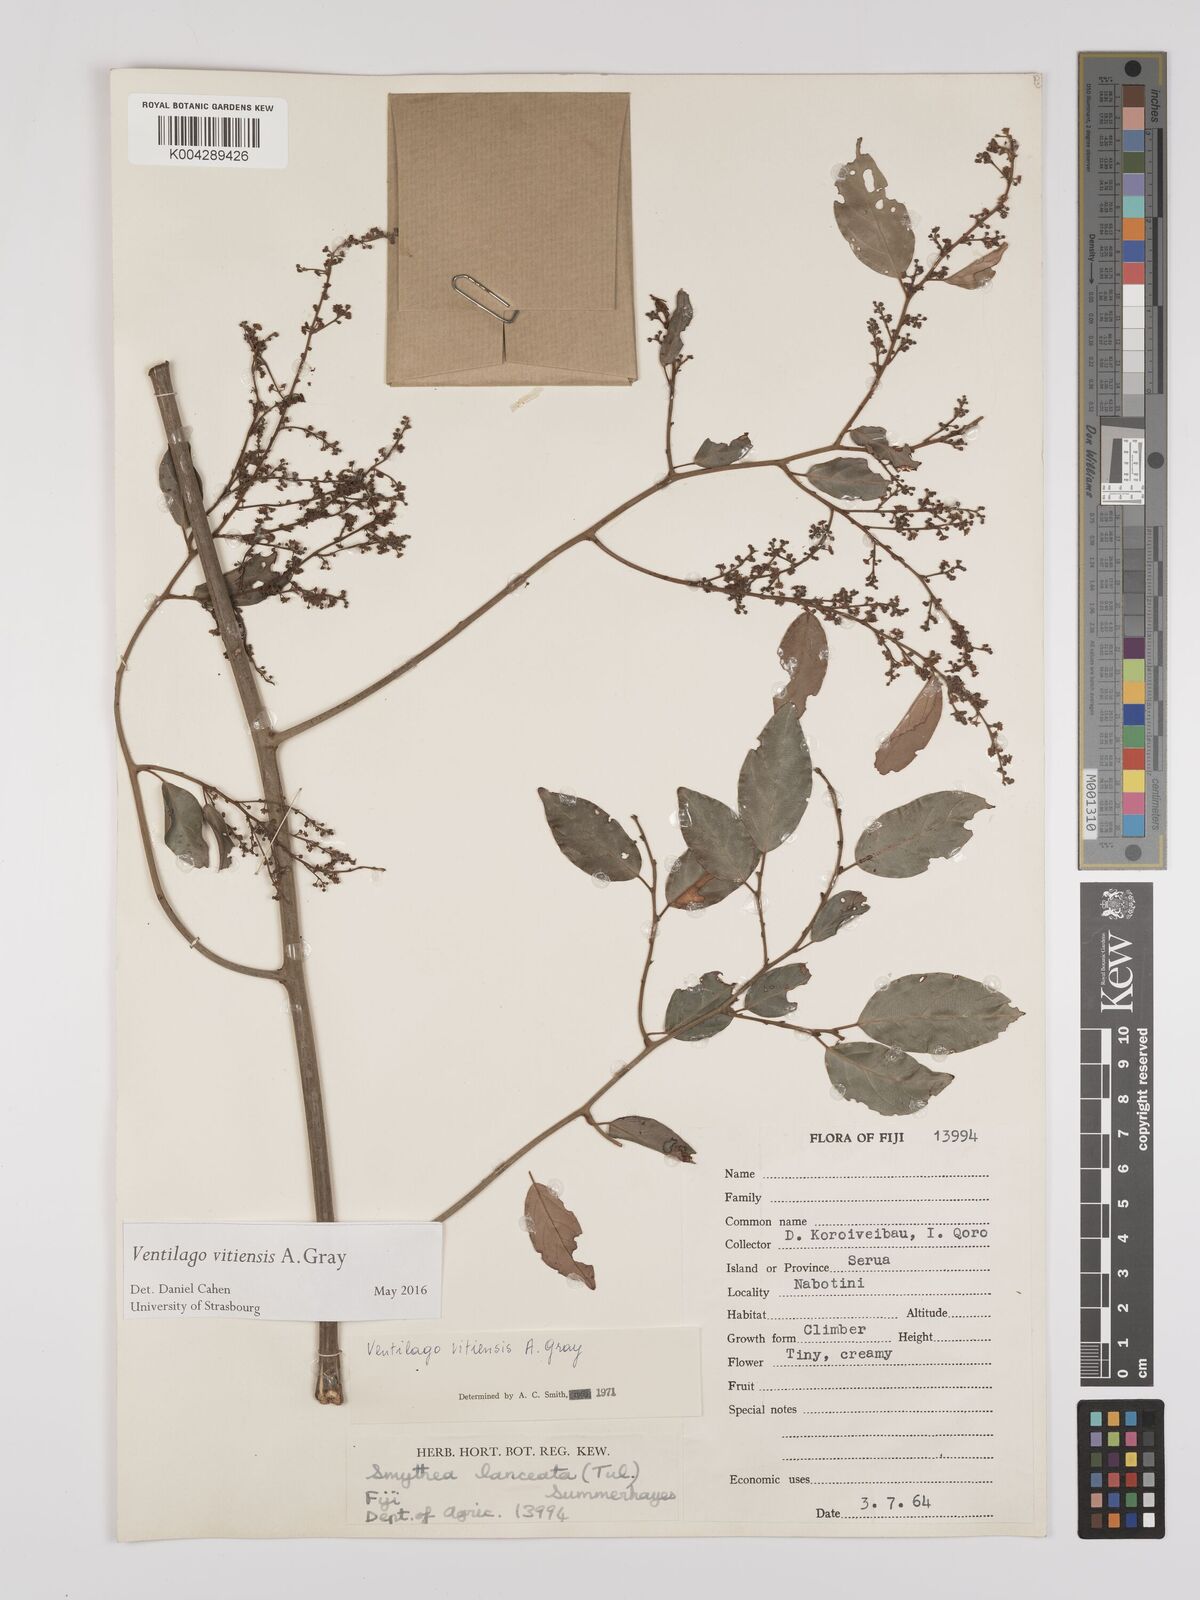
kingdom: Plantae
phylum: Tracheophyta
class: Magnoliopsida
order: Rosales
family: Rhamnaceae
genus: Ventilago
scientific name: Ventilago vitiensis
